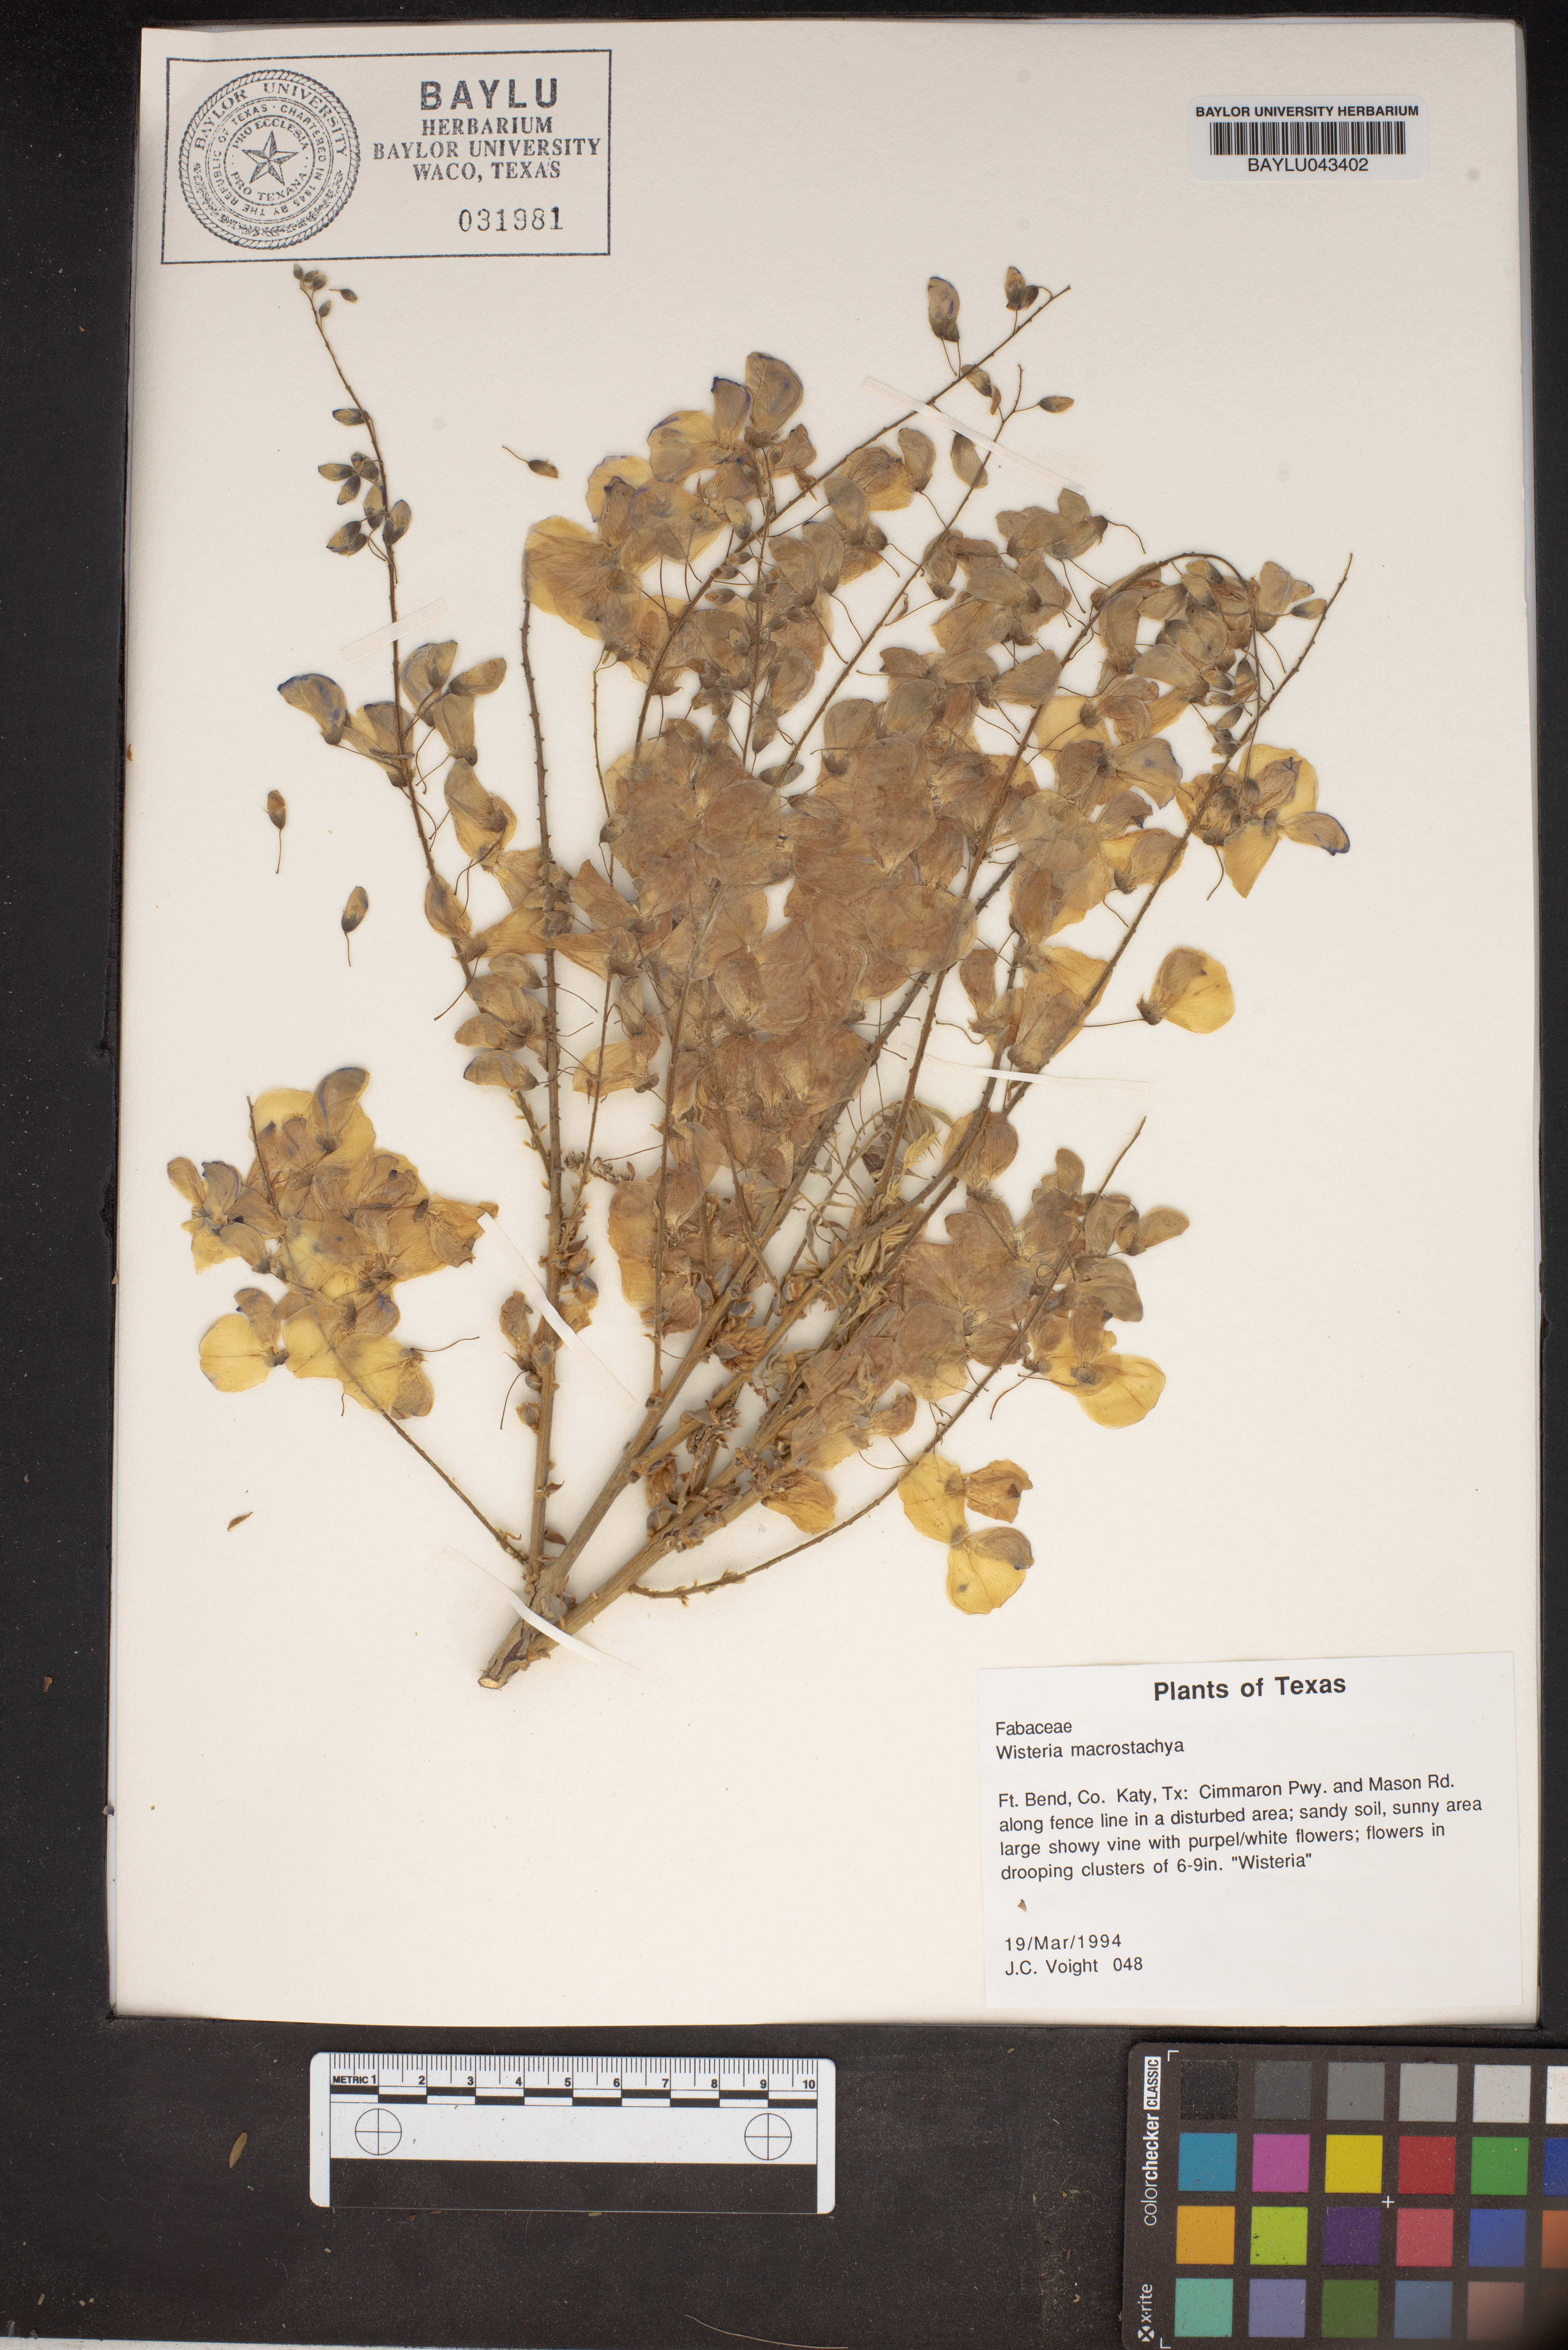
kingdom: Plantae
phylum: Tracheophyta
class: Magnoliopsida
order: Fabales
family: Fabaceae
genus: Wisteria
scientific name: Wisteria frutescens
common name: American wisteria
